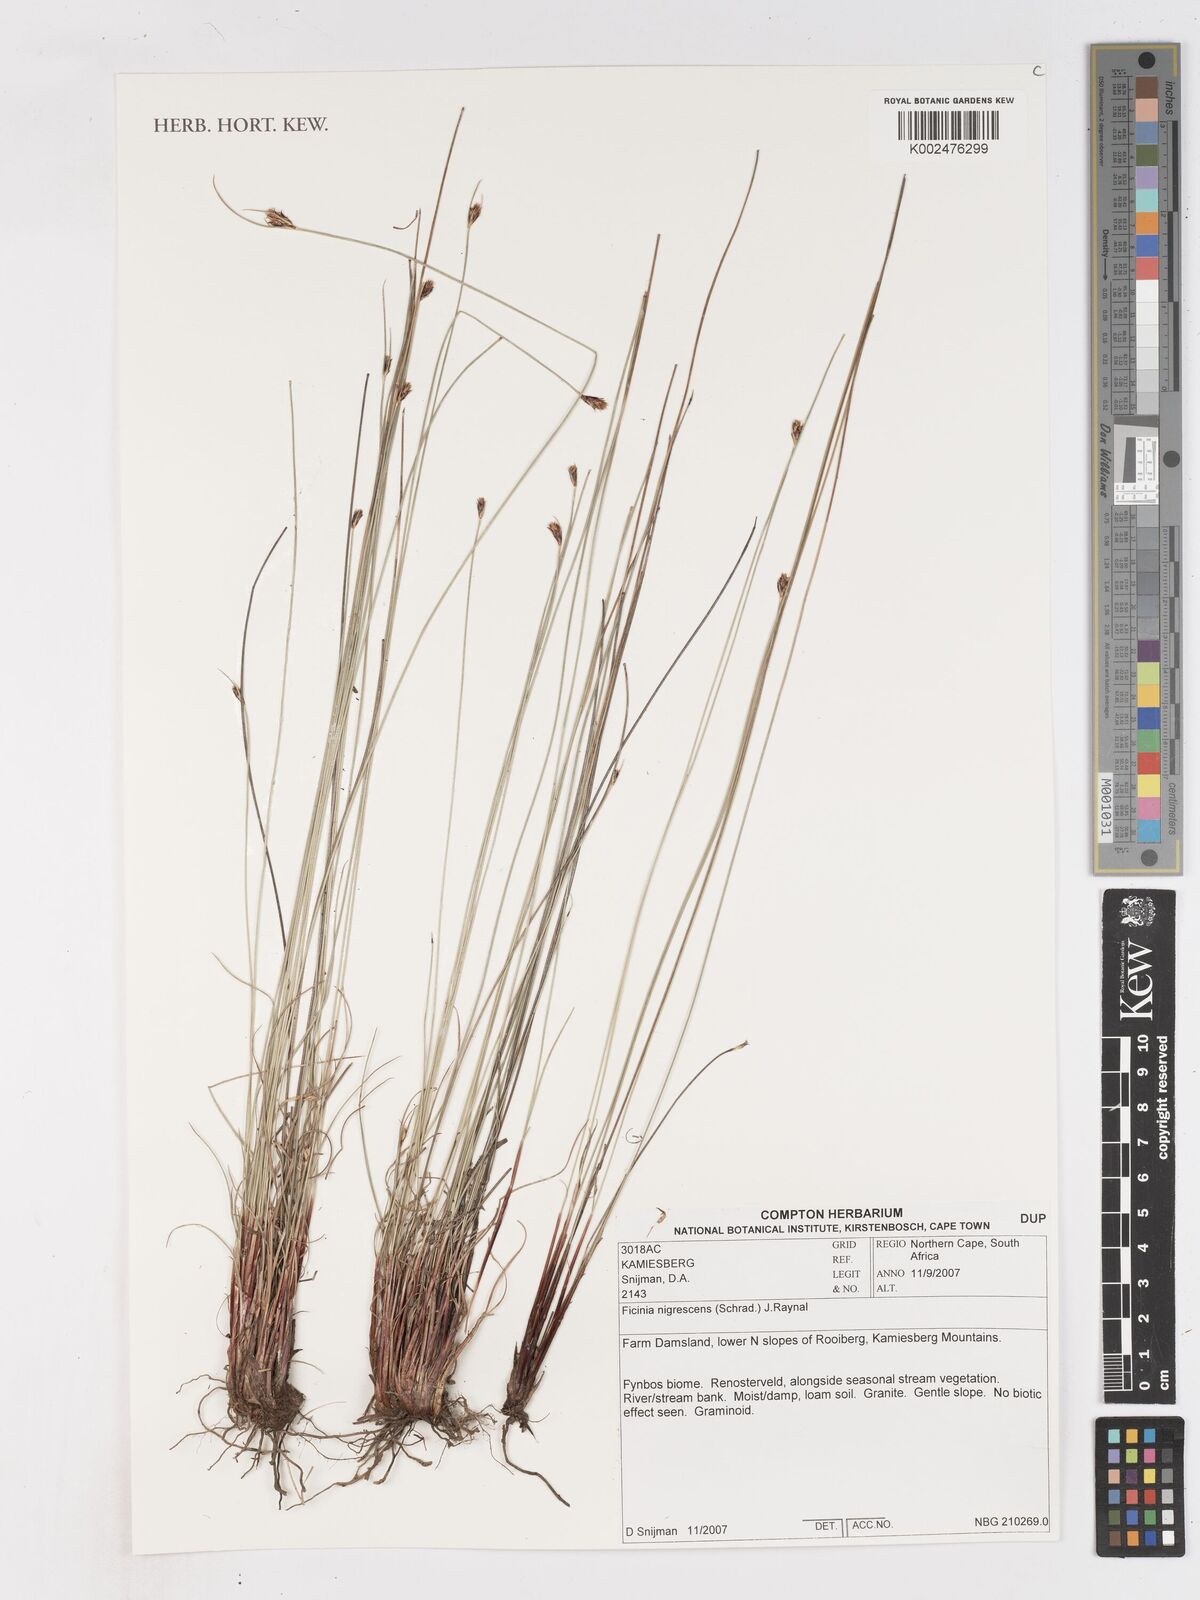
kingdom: Plantae
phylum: Tracheophyta
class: Liliopsida
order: Poales
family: Cyperaceae
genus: Ficinia
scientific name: Ficinia nigrescens
